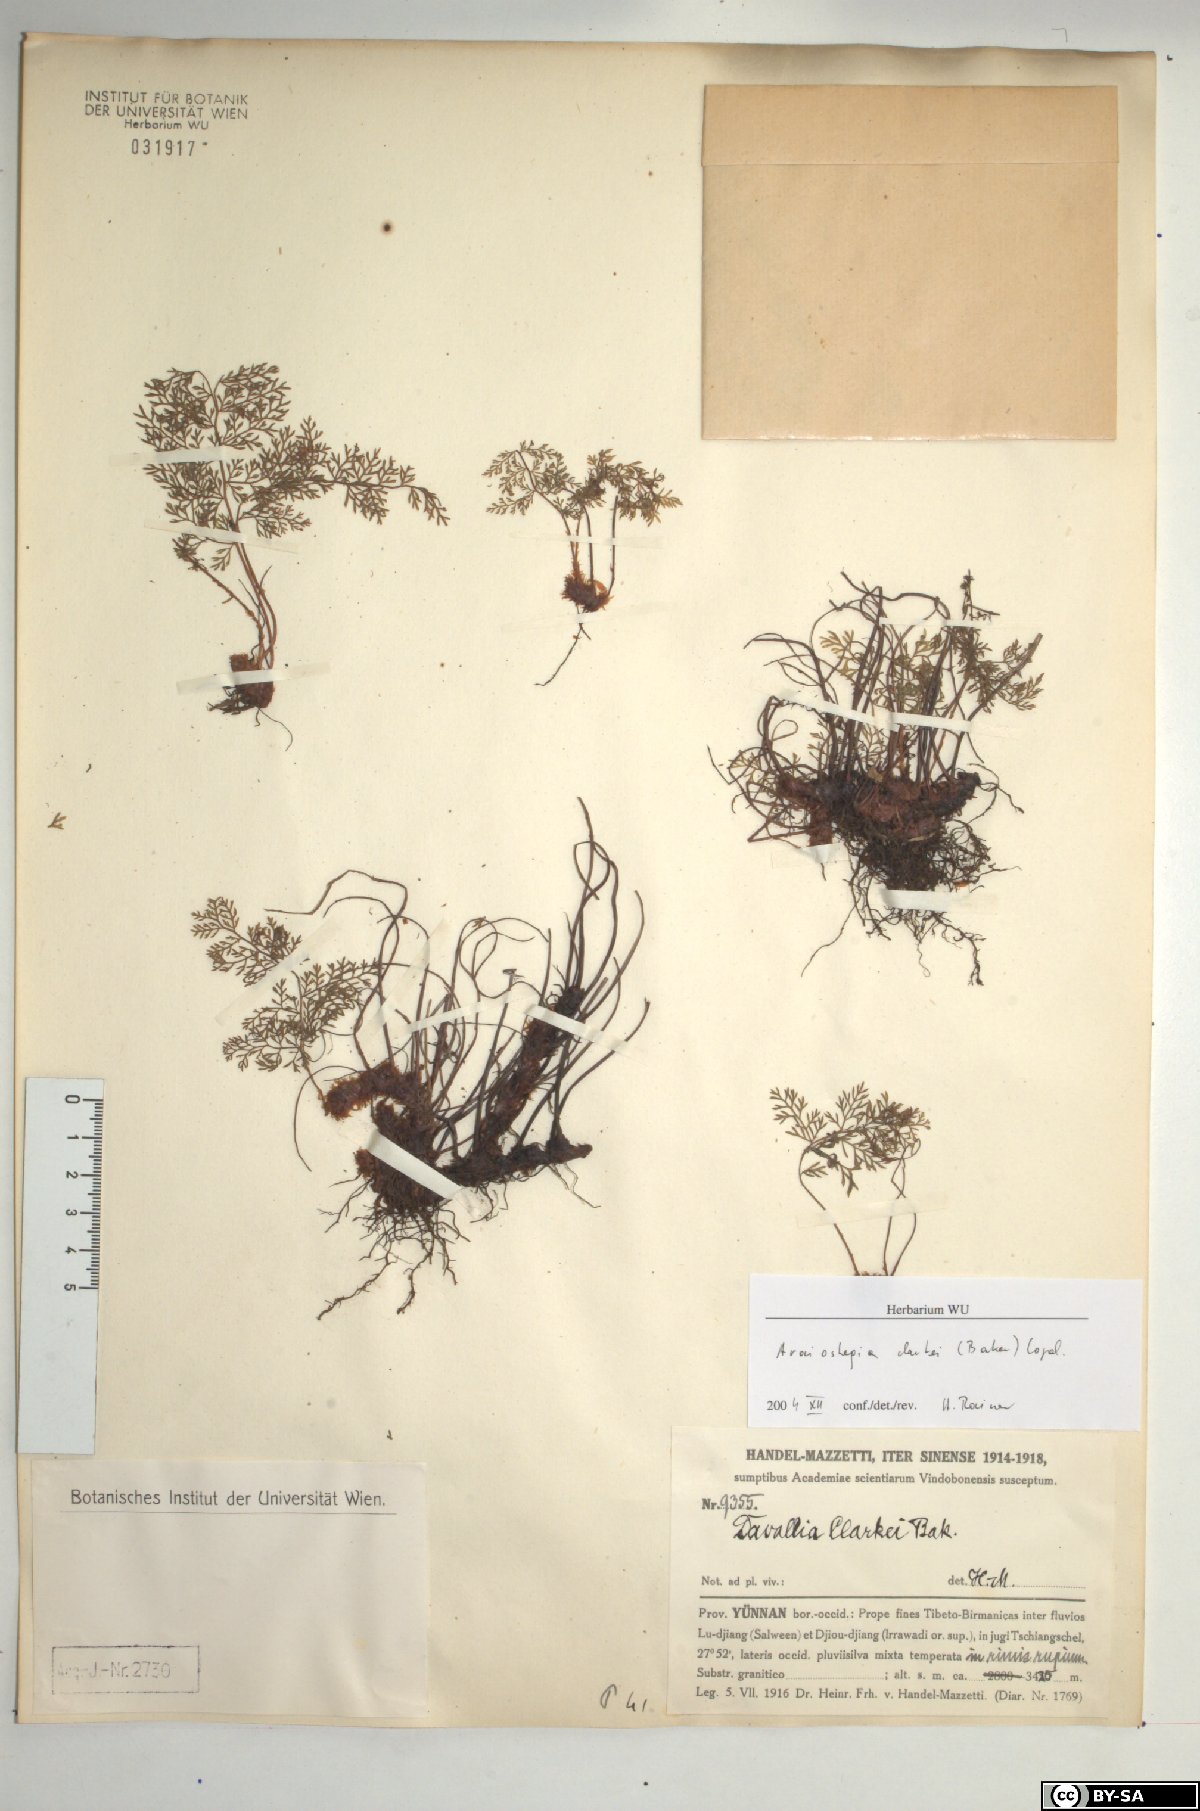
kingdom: Plantae
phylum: Tracheophyta
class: Polypodiopsida
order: Polypodiales
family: Davalliaceae
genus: Davallia
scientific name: Davallia hookeri
